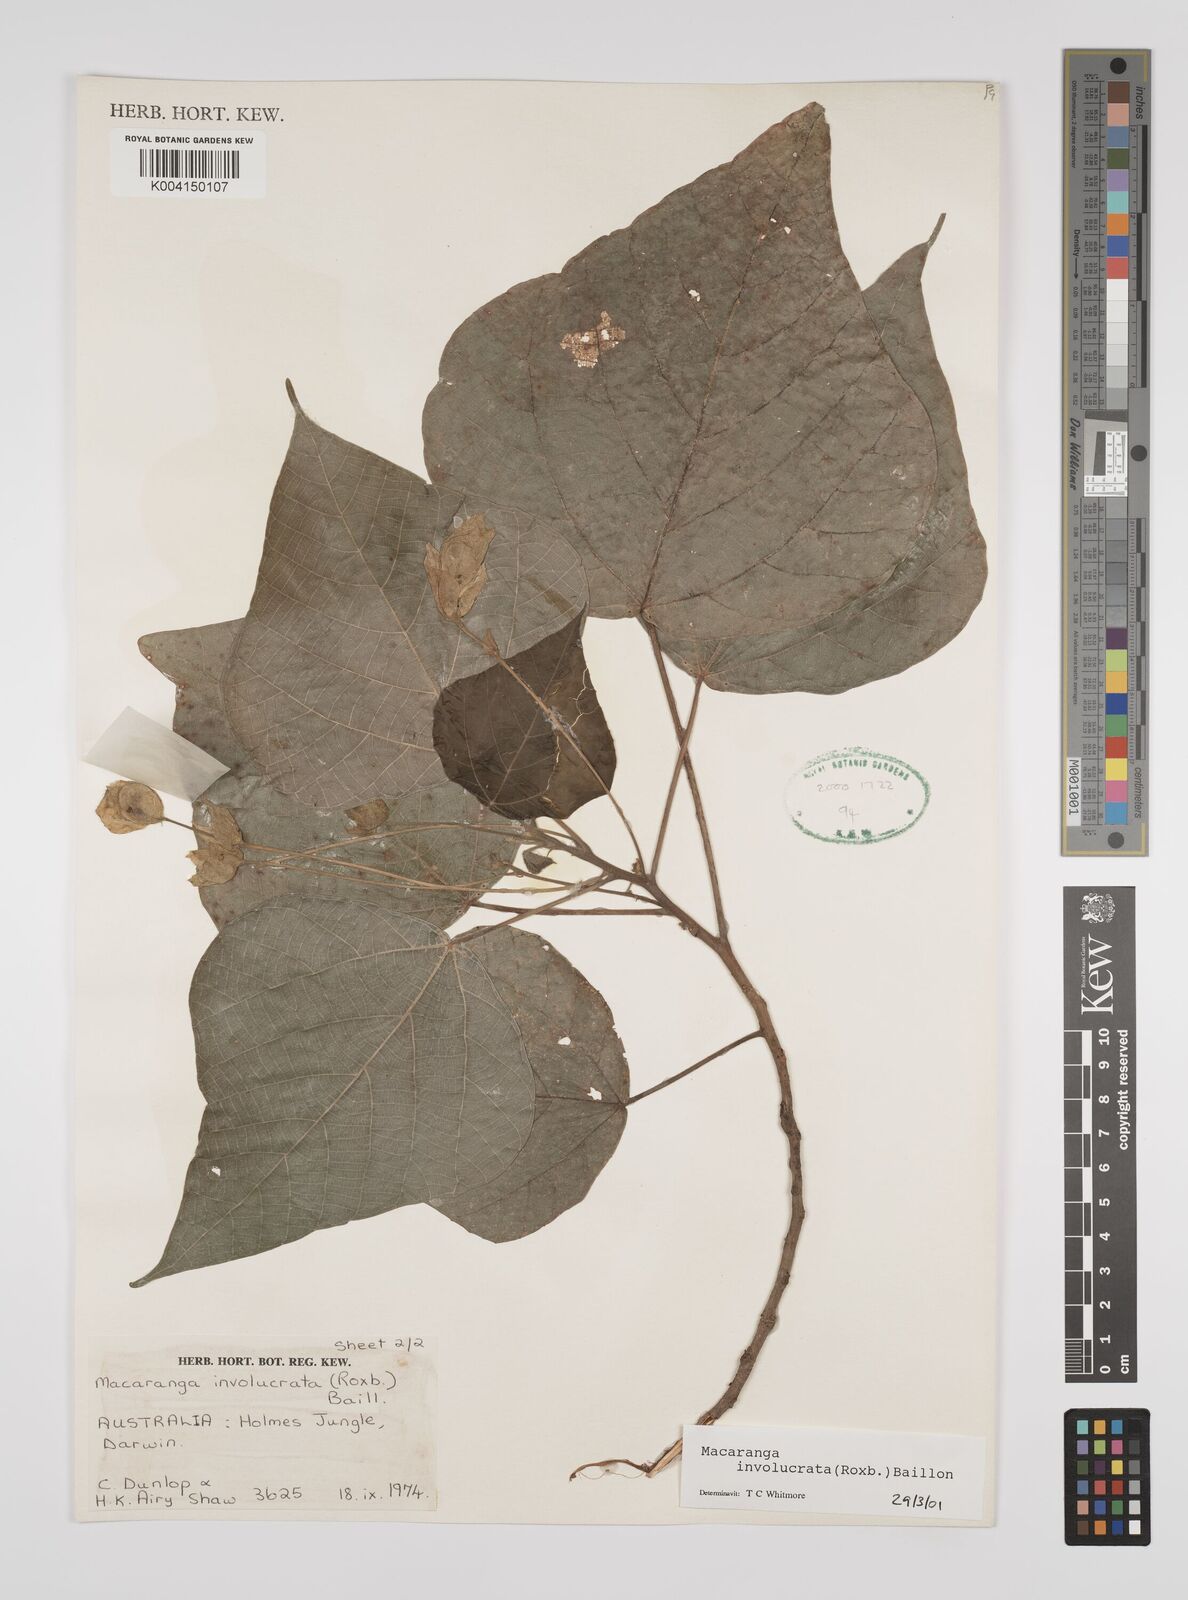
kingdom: Plantae
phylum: Tracheophyta
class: Magnoliopsida
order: Malpighiales
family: Euphorbiaceae
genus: Macaranga
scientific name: Macaranga involucrata
